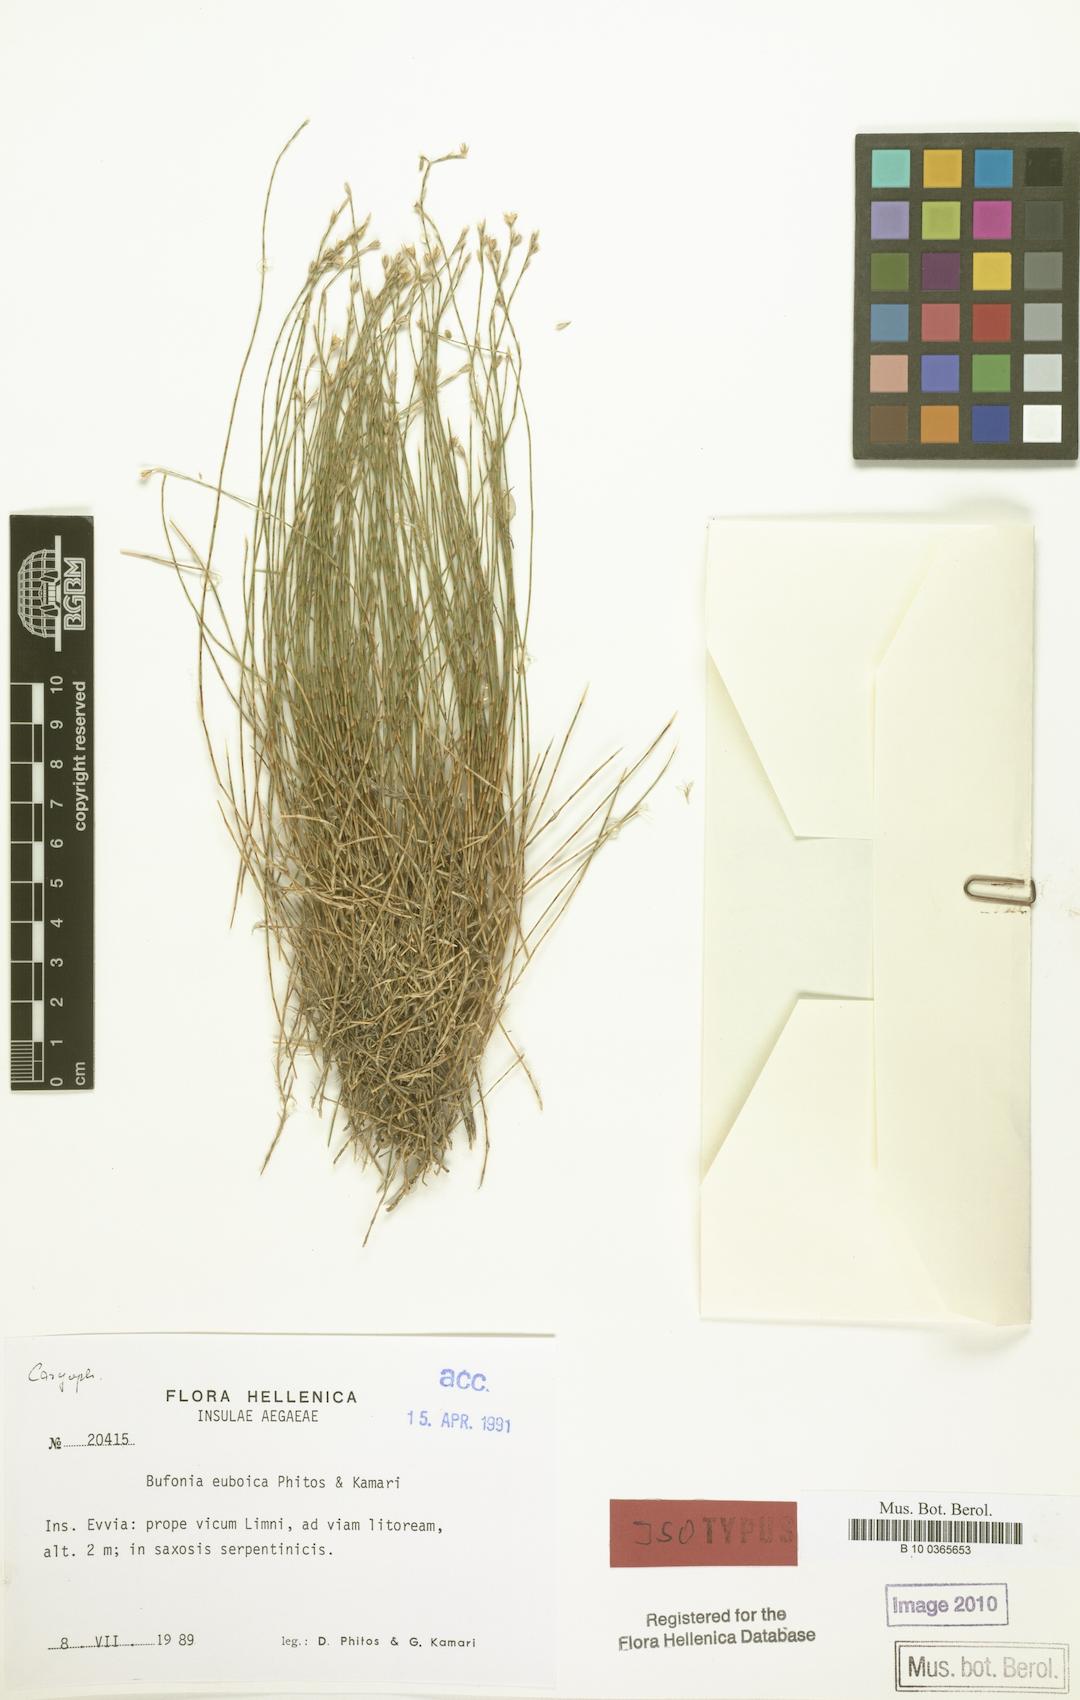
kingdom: Plantae
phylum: Tracheophyta
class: Magnoliopsida
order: Caryophyllales
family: Caryophyllaceae
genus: Bufonia
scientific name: Bufonia parviflora
